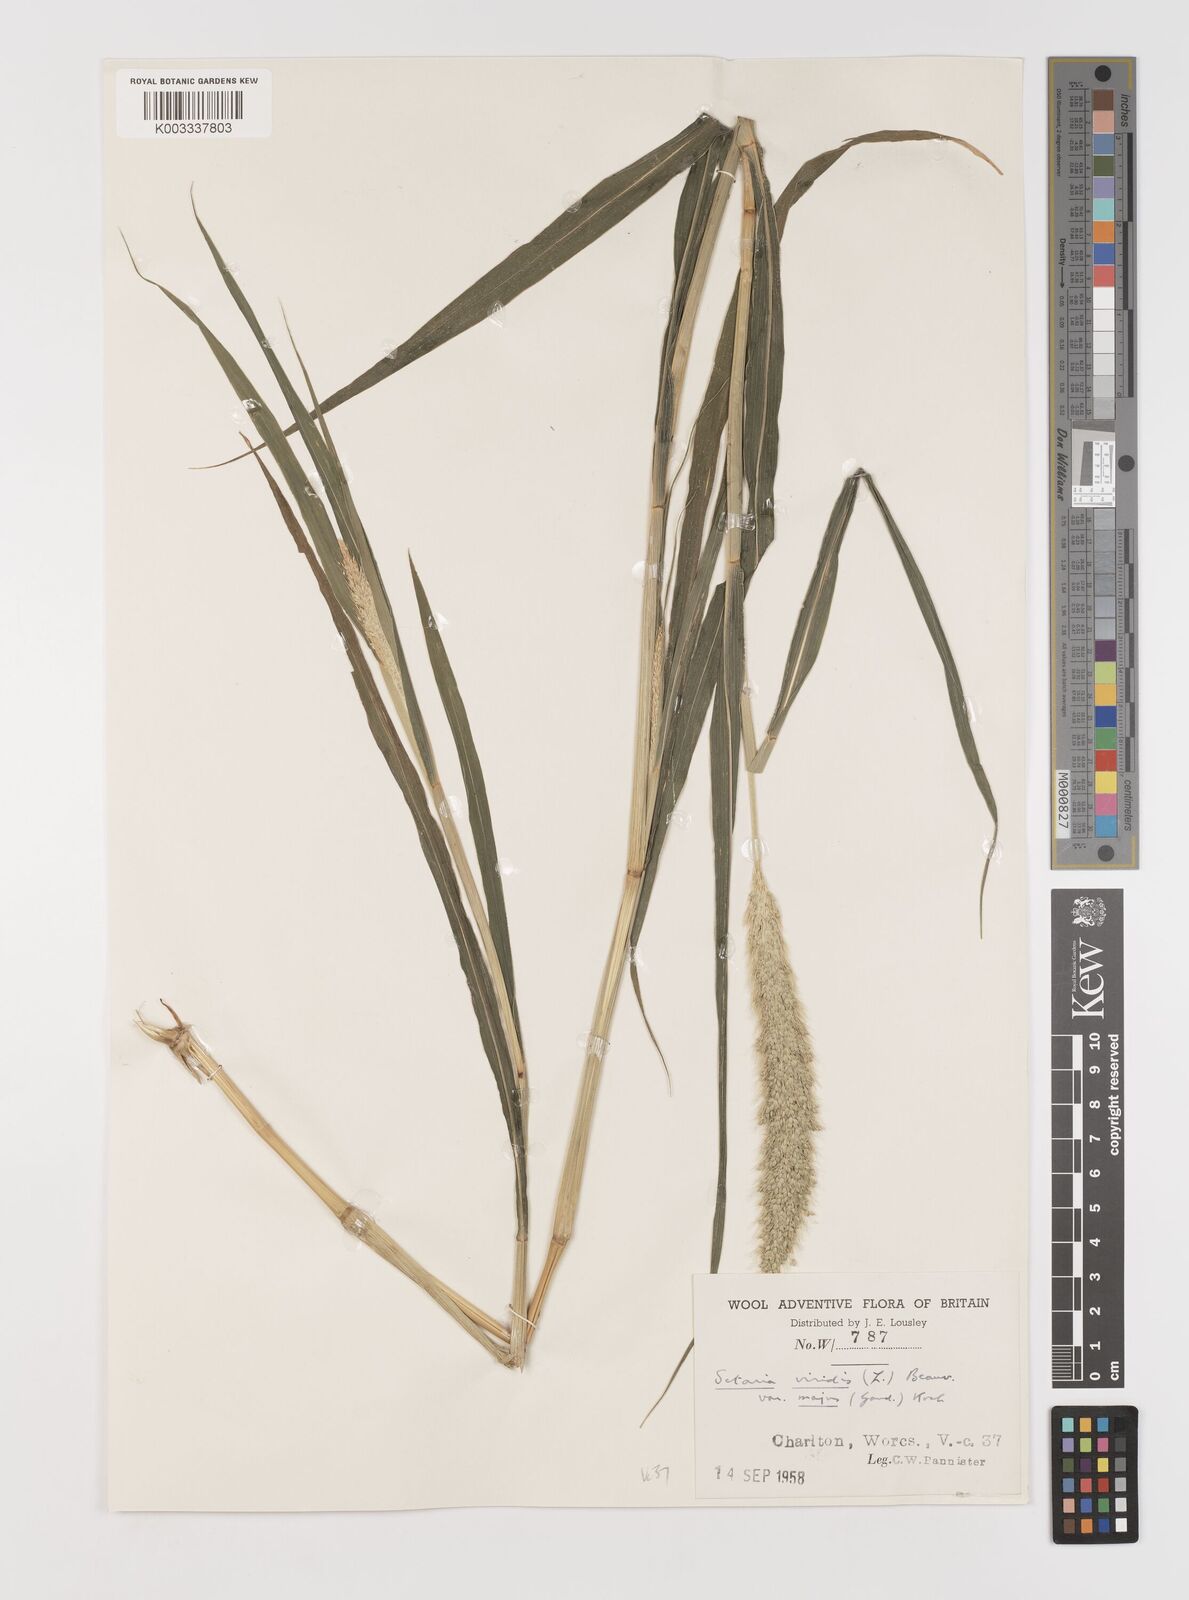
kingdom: Plantae
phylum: Tracheophyta
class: Liliopsida
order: Poales
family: Poaceae
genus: Setaria
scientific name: Setaria viridis
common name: Green bristlegrass
